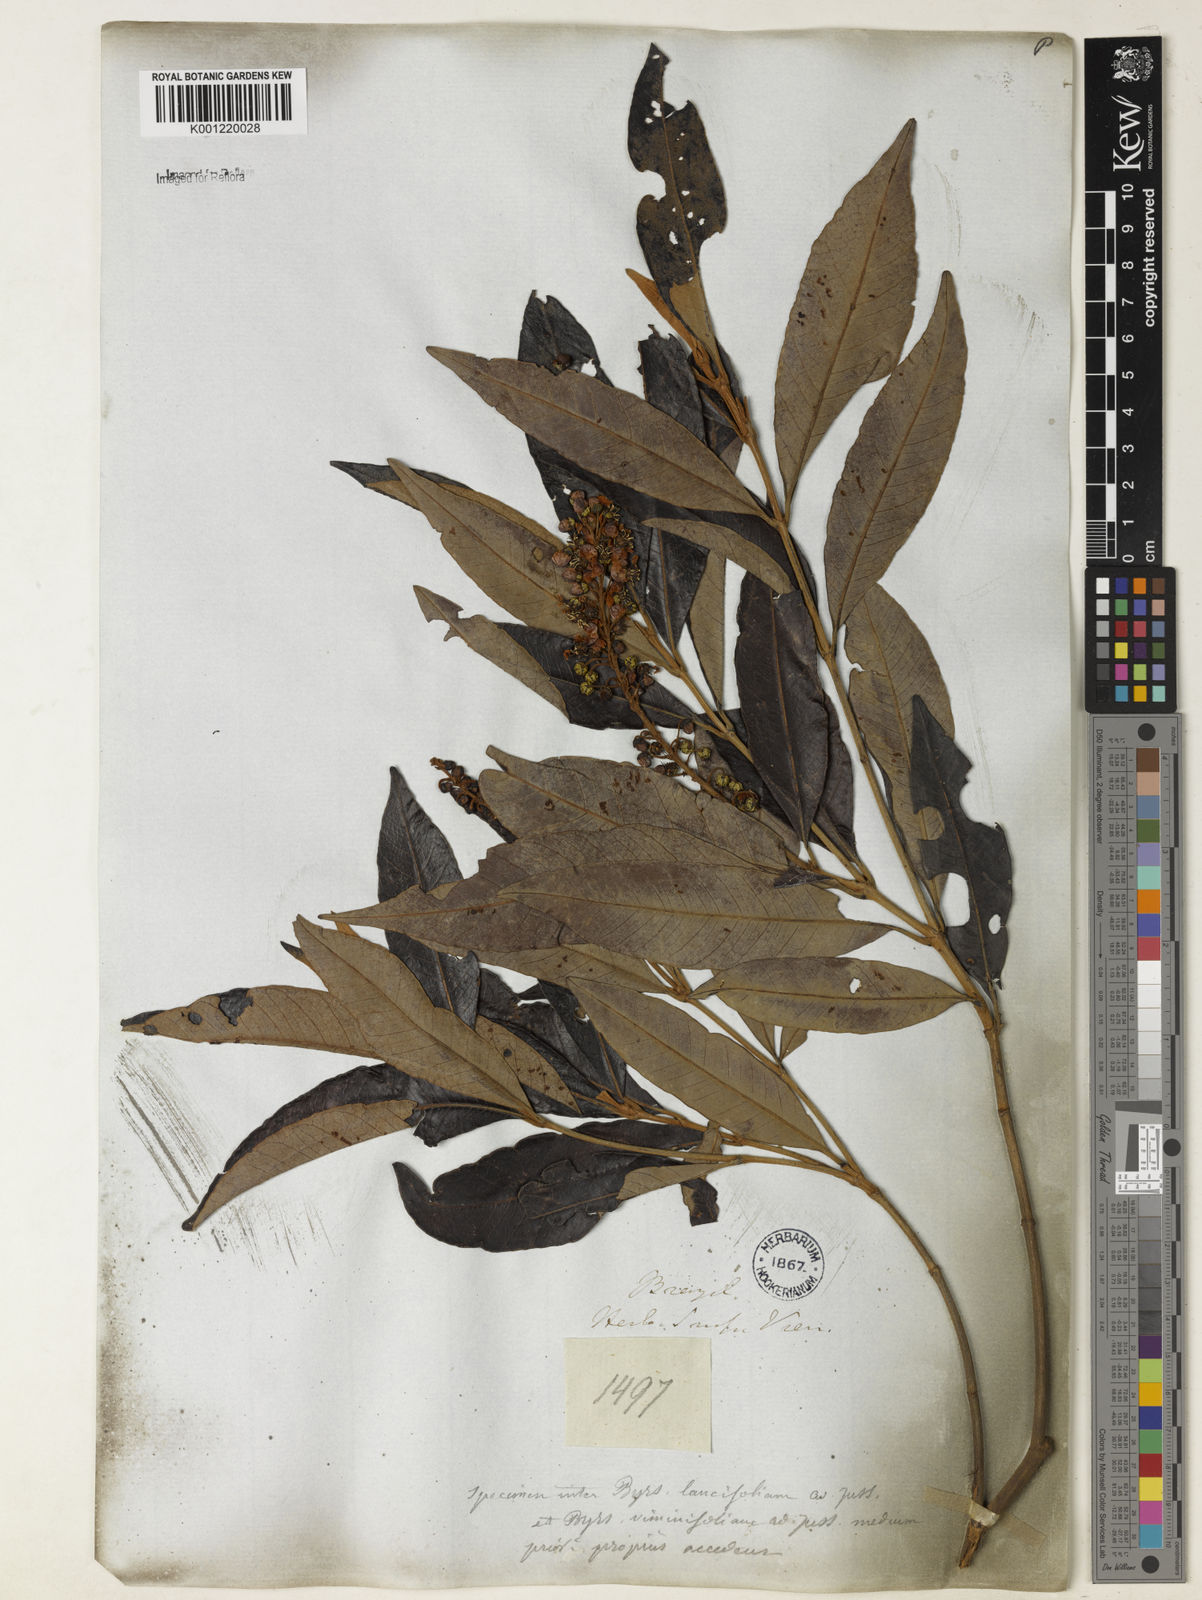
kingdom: Plantae
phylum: Tracheophyta
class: Magnoliopsida
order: Malpighiales
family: Malpighiaceae
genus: Byrsonima
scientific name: Byrsonima lancifolia
